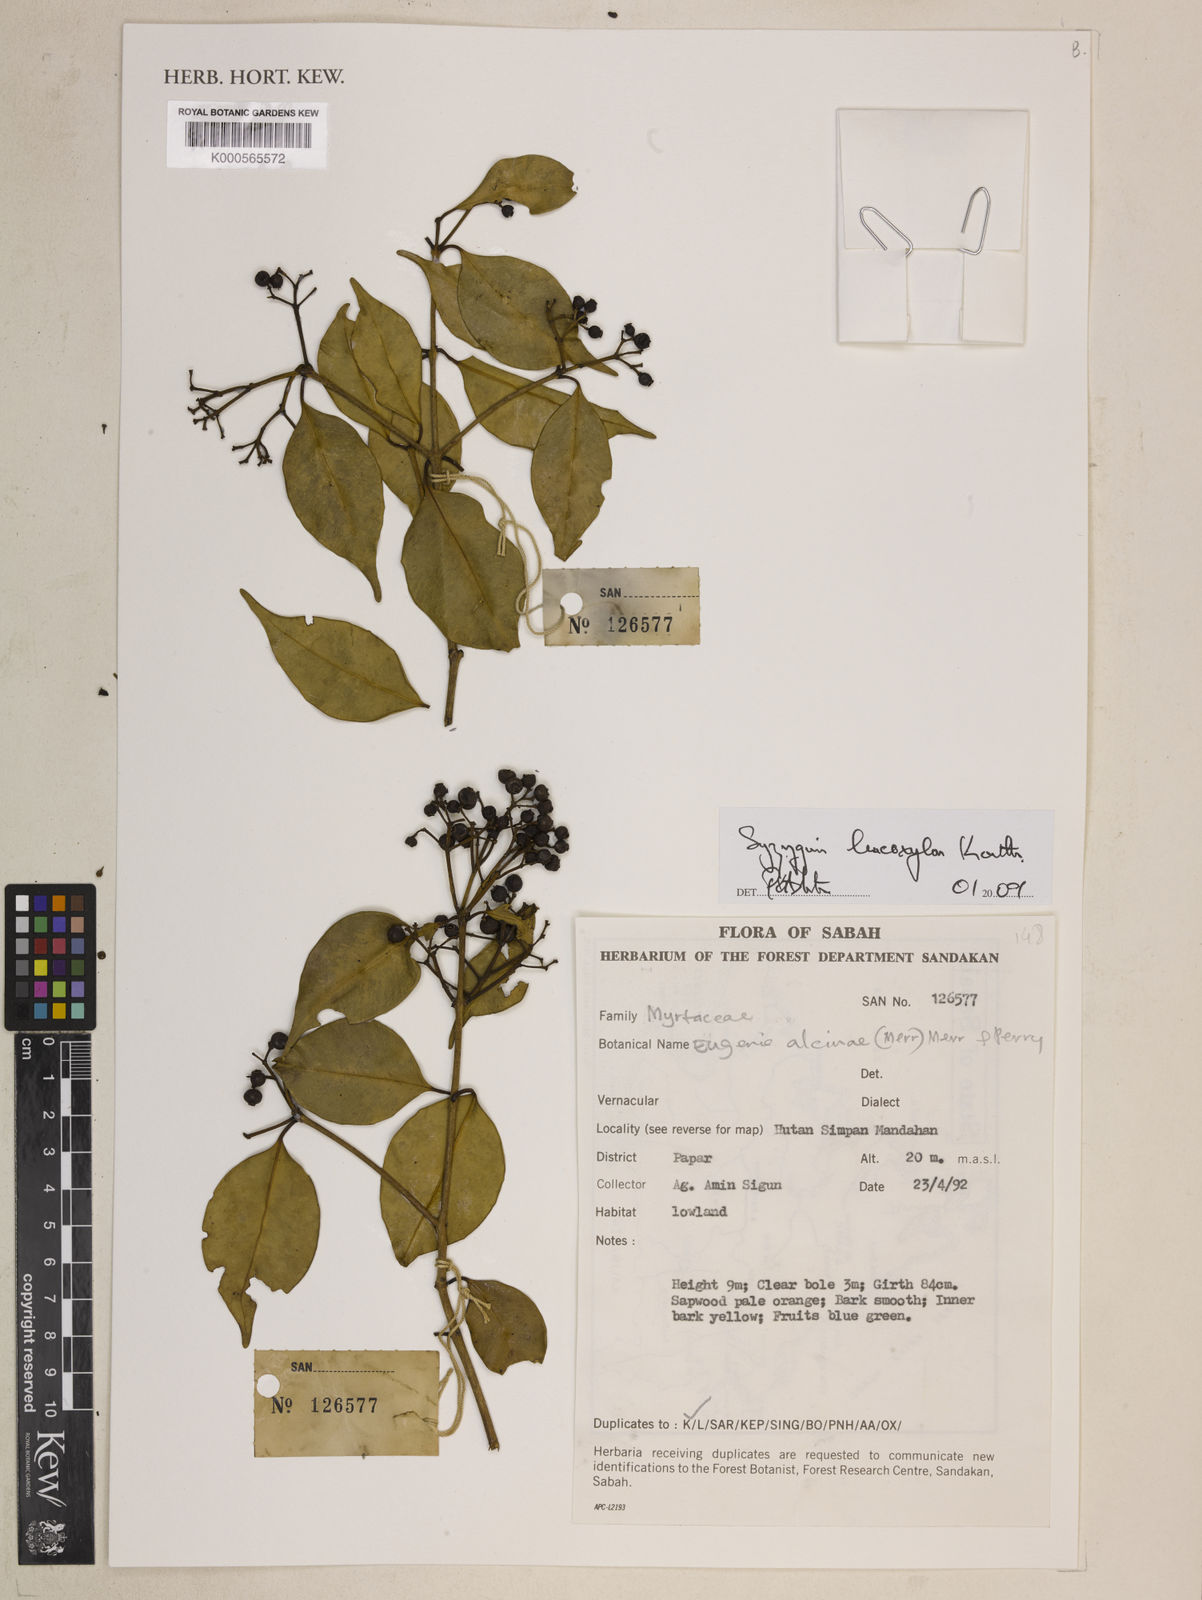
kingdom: Plantae
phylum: Tracheophyta
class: Magnoliopsida
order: Myrtales
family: Myrtaceae
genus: Syzygium
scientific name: Syzygium leucoxylon
